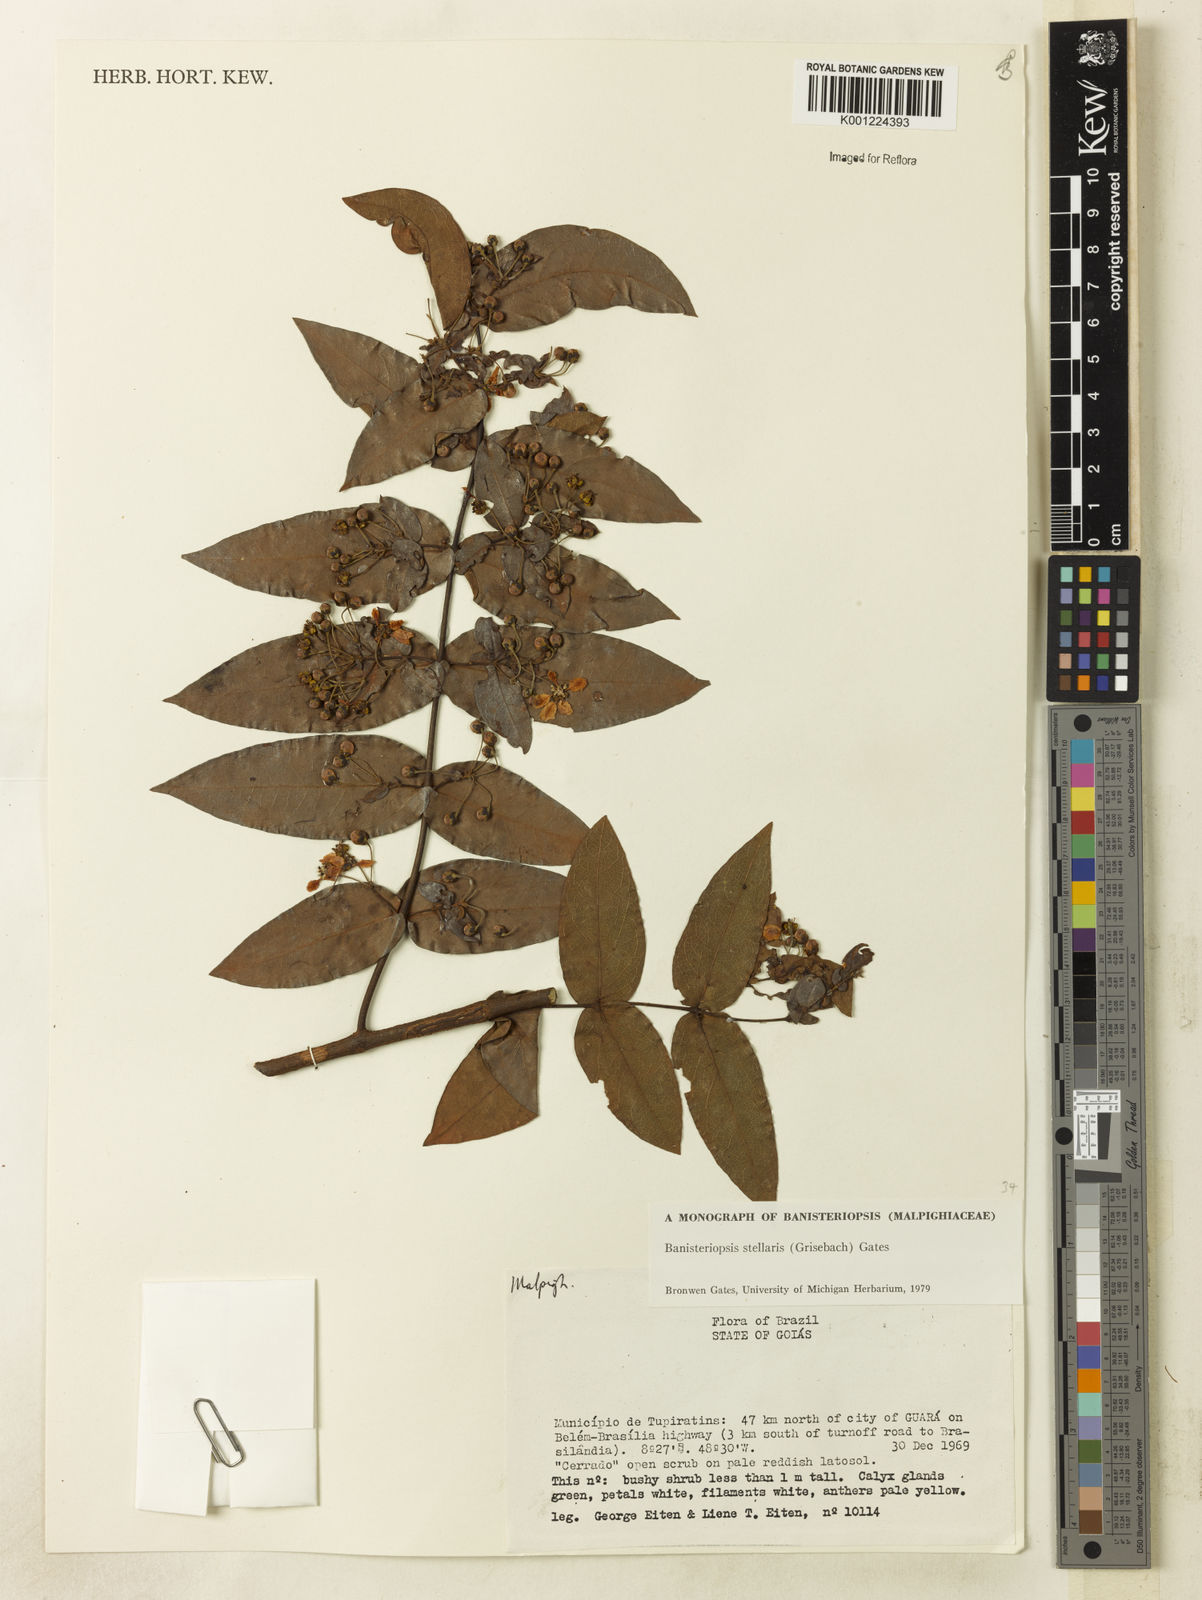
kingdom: Plantae
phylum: Tracheophyta
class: Magnoliopsida
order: Malpighiales
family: Malpighiaceae
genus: Banisteriopsis
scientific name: Banisteriopsis stellaris
